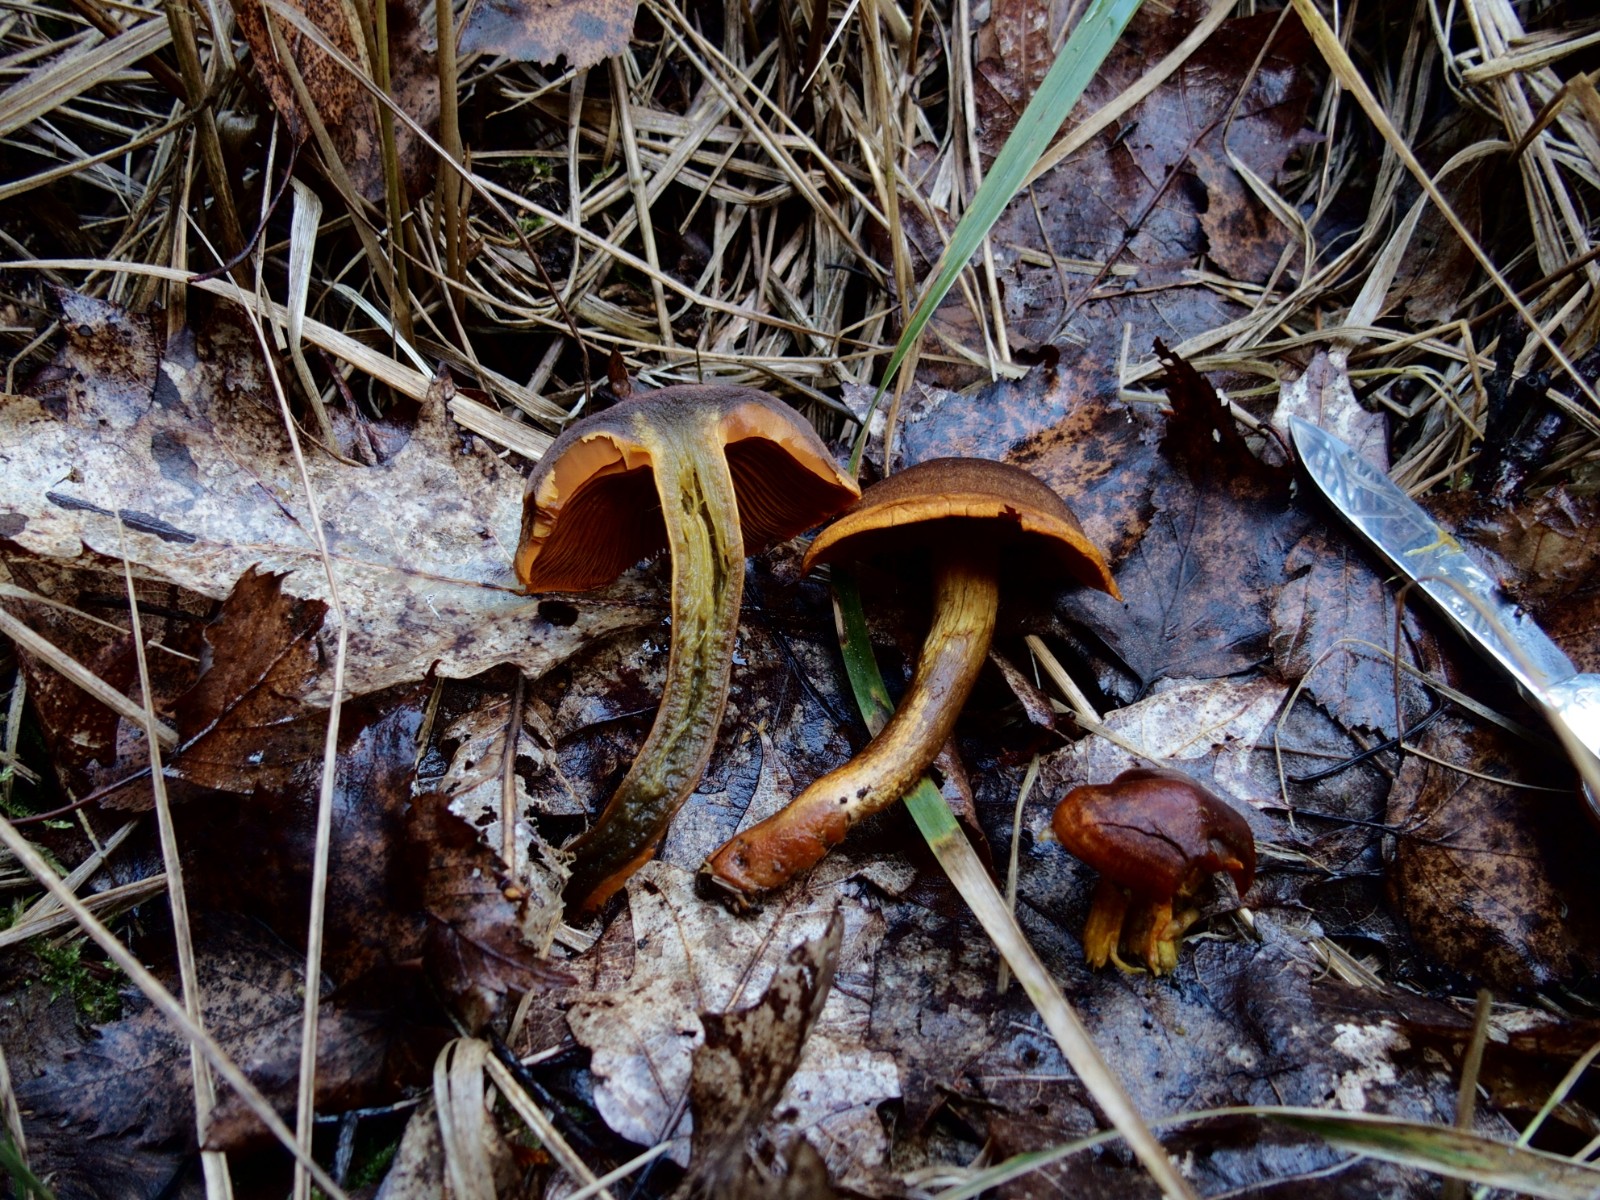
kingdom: Fungi
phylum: Basidiomycota
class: Agaricomycetes
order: Agaricales
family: Cortinariaceae
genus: Cortinarius
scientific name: Cortinarius malicorius
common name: grønkødet slørhat
